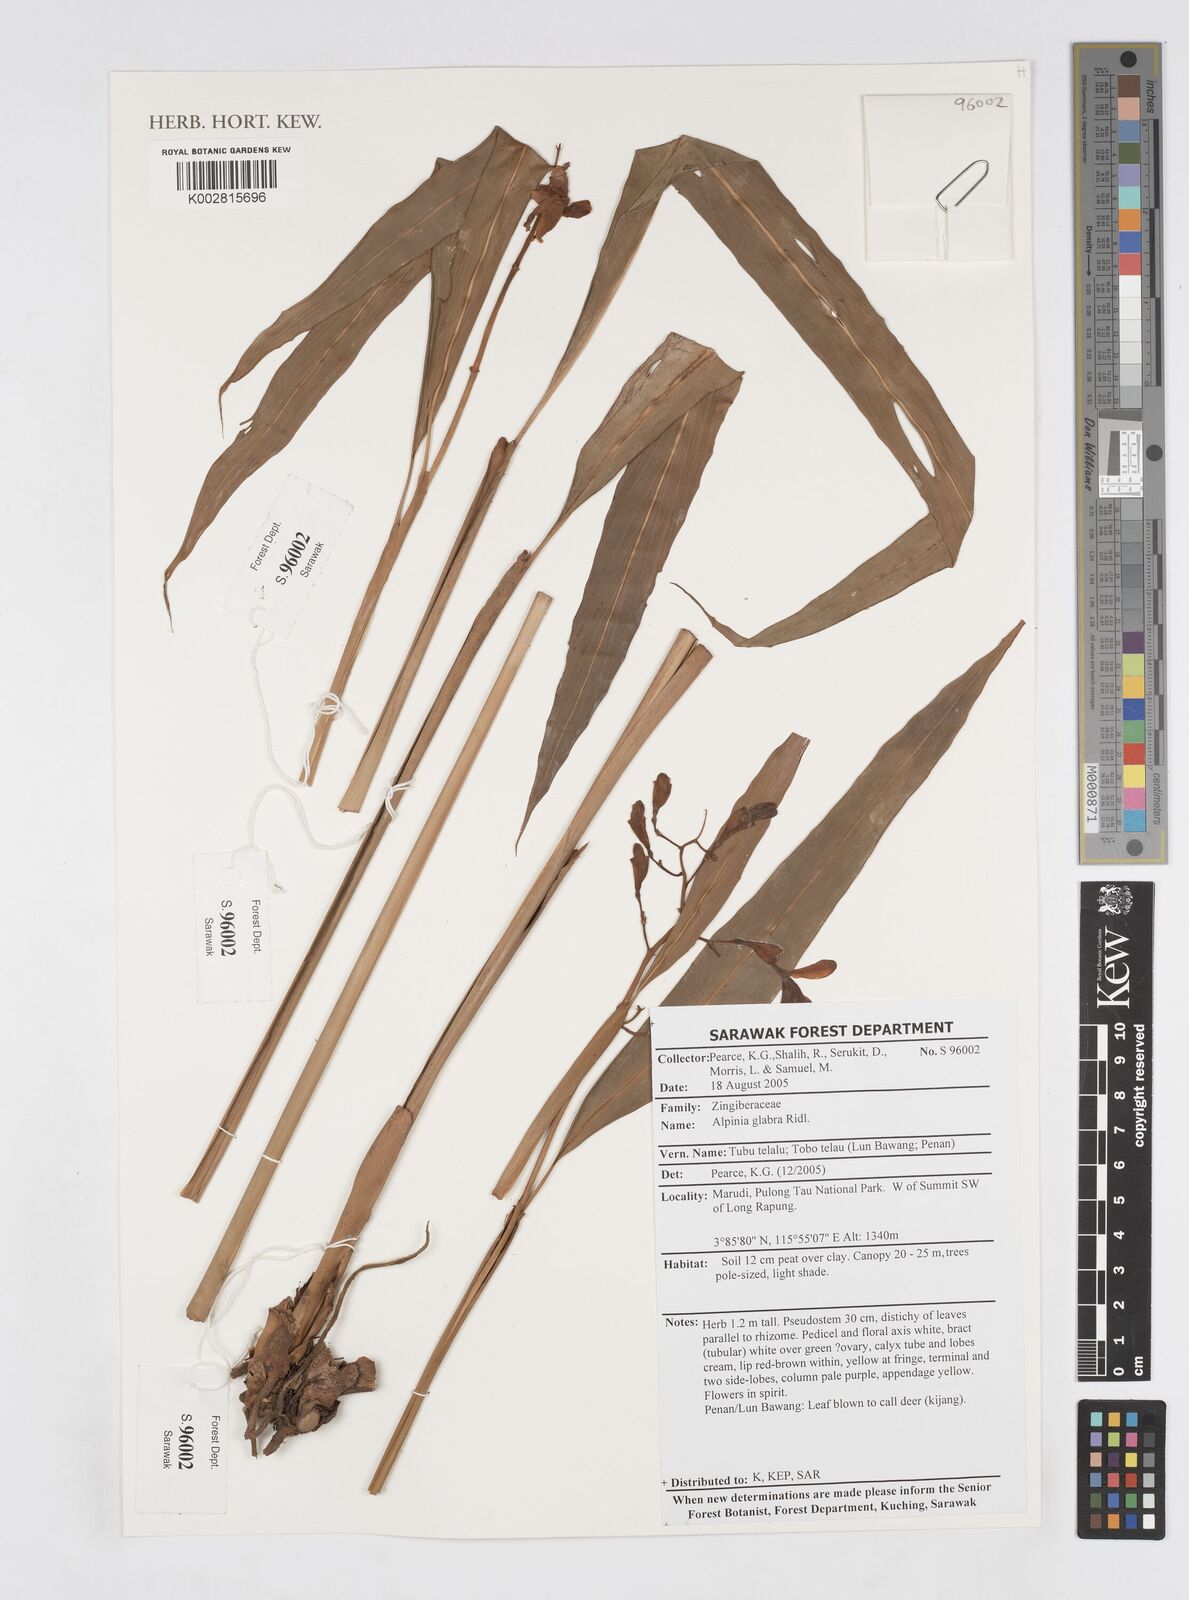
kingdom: Plantae
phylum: Tracheophyta
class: Liliopsida
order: Zingiberales
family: Zingiberaceae
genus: Alpinia
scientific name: Alpinia glabra
